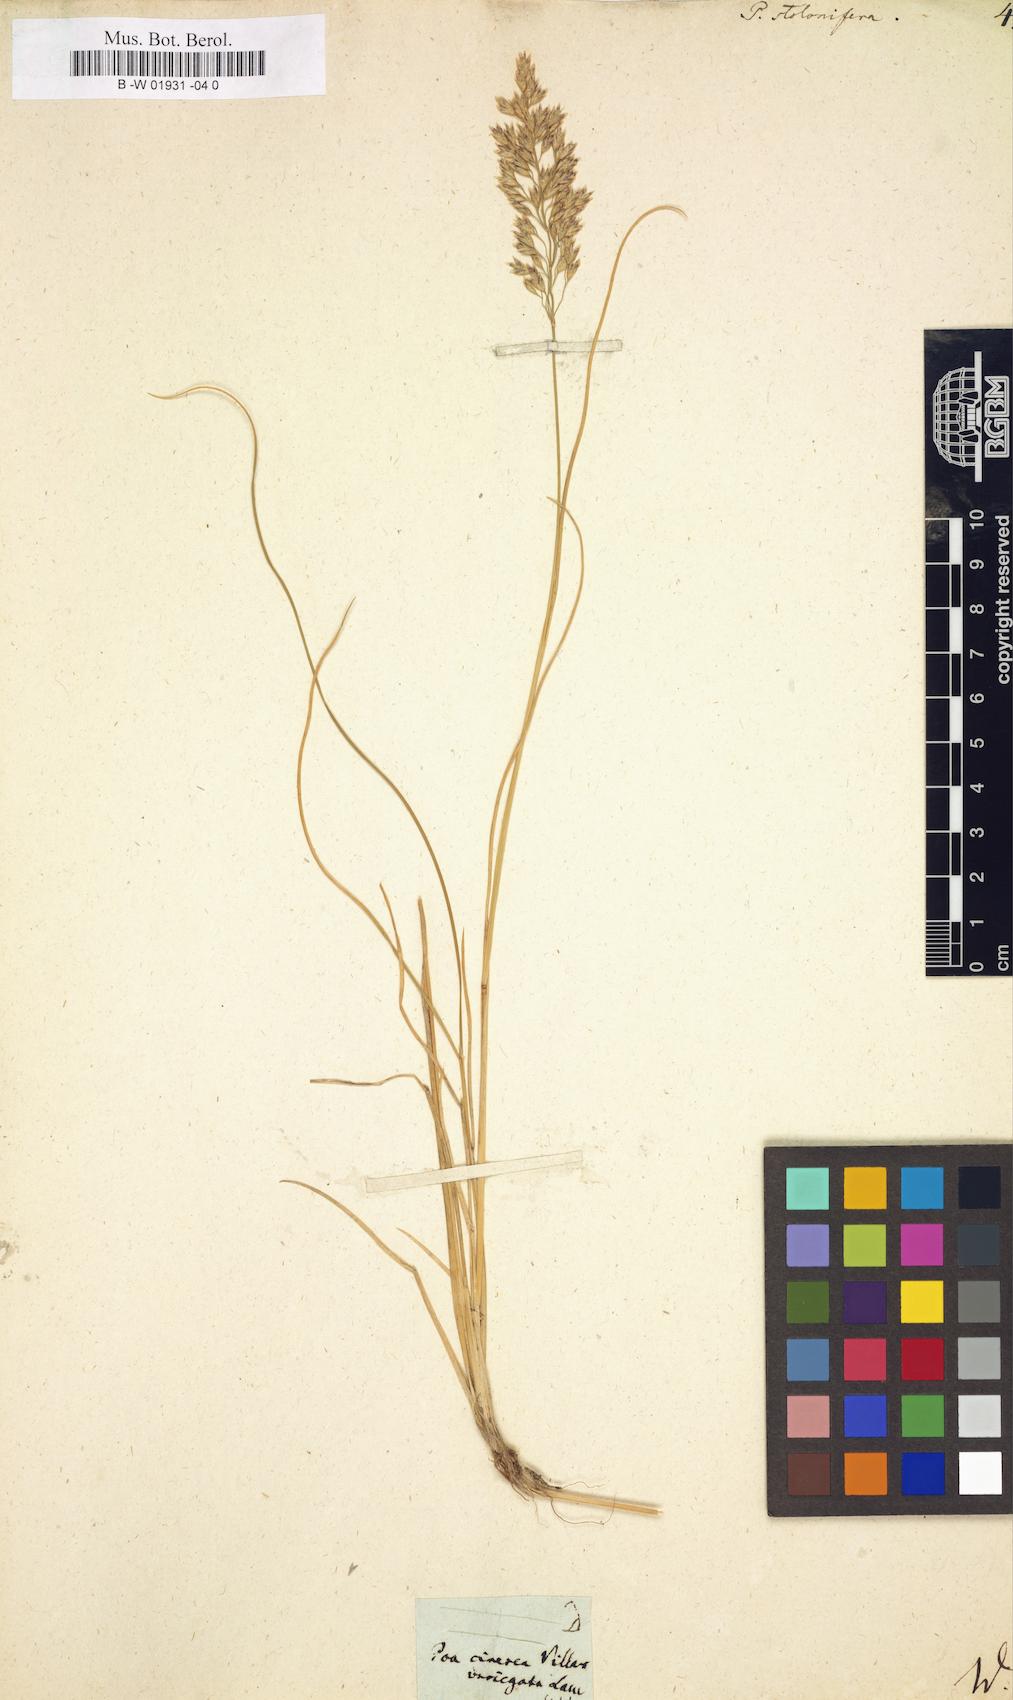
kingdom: Plantae
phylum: Tracheophyta
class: Liliopsida
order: Poales
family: Poaceae
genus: Poa
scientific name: Poa
